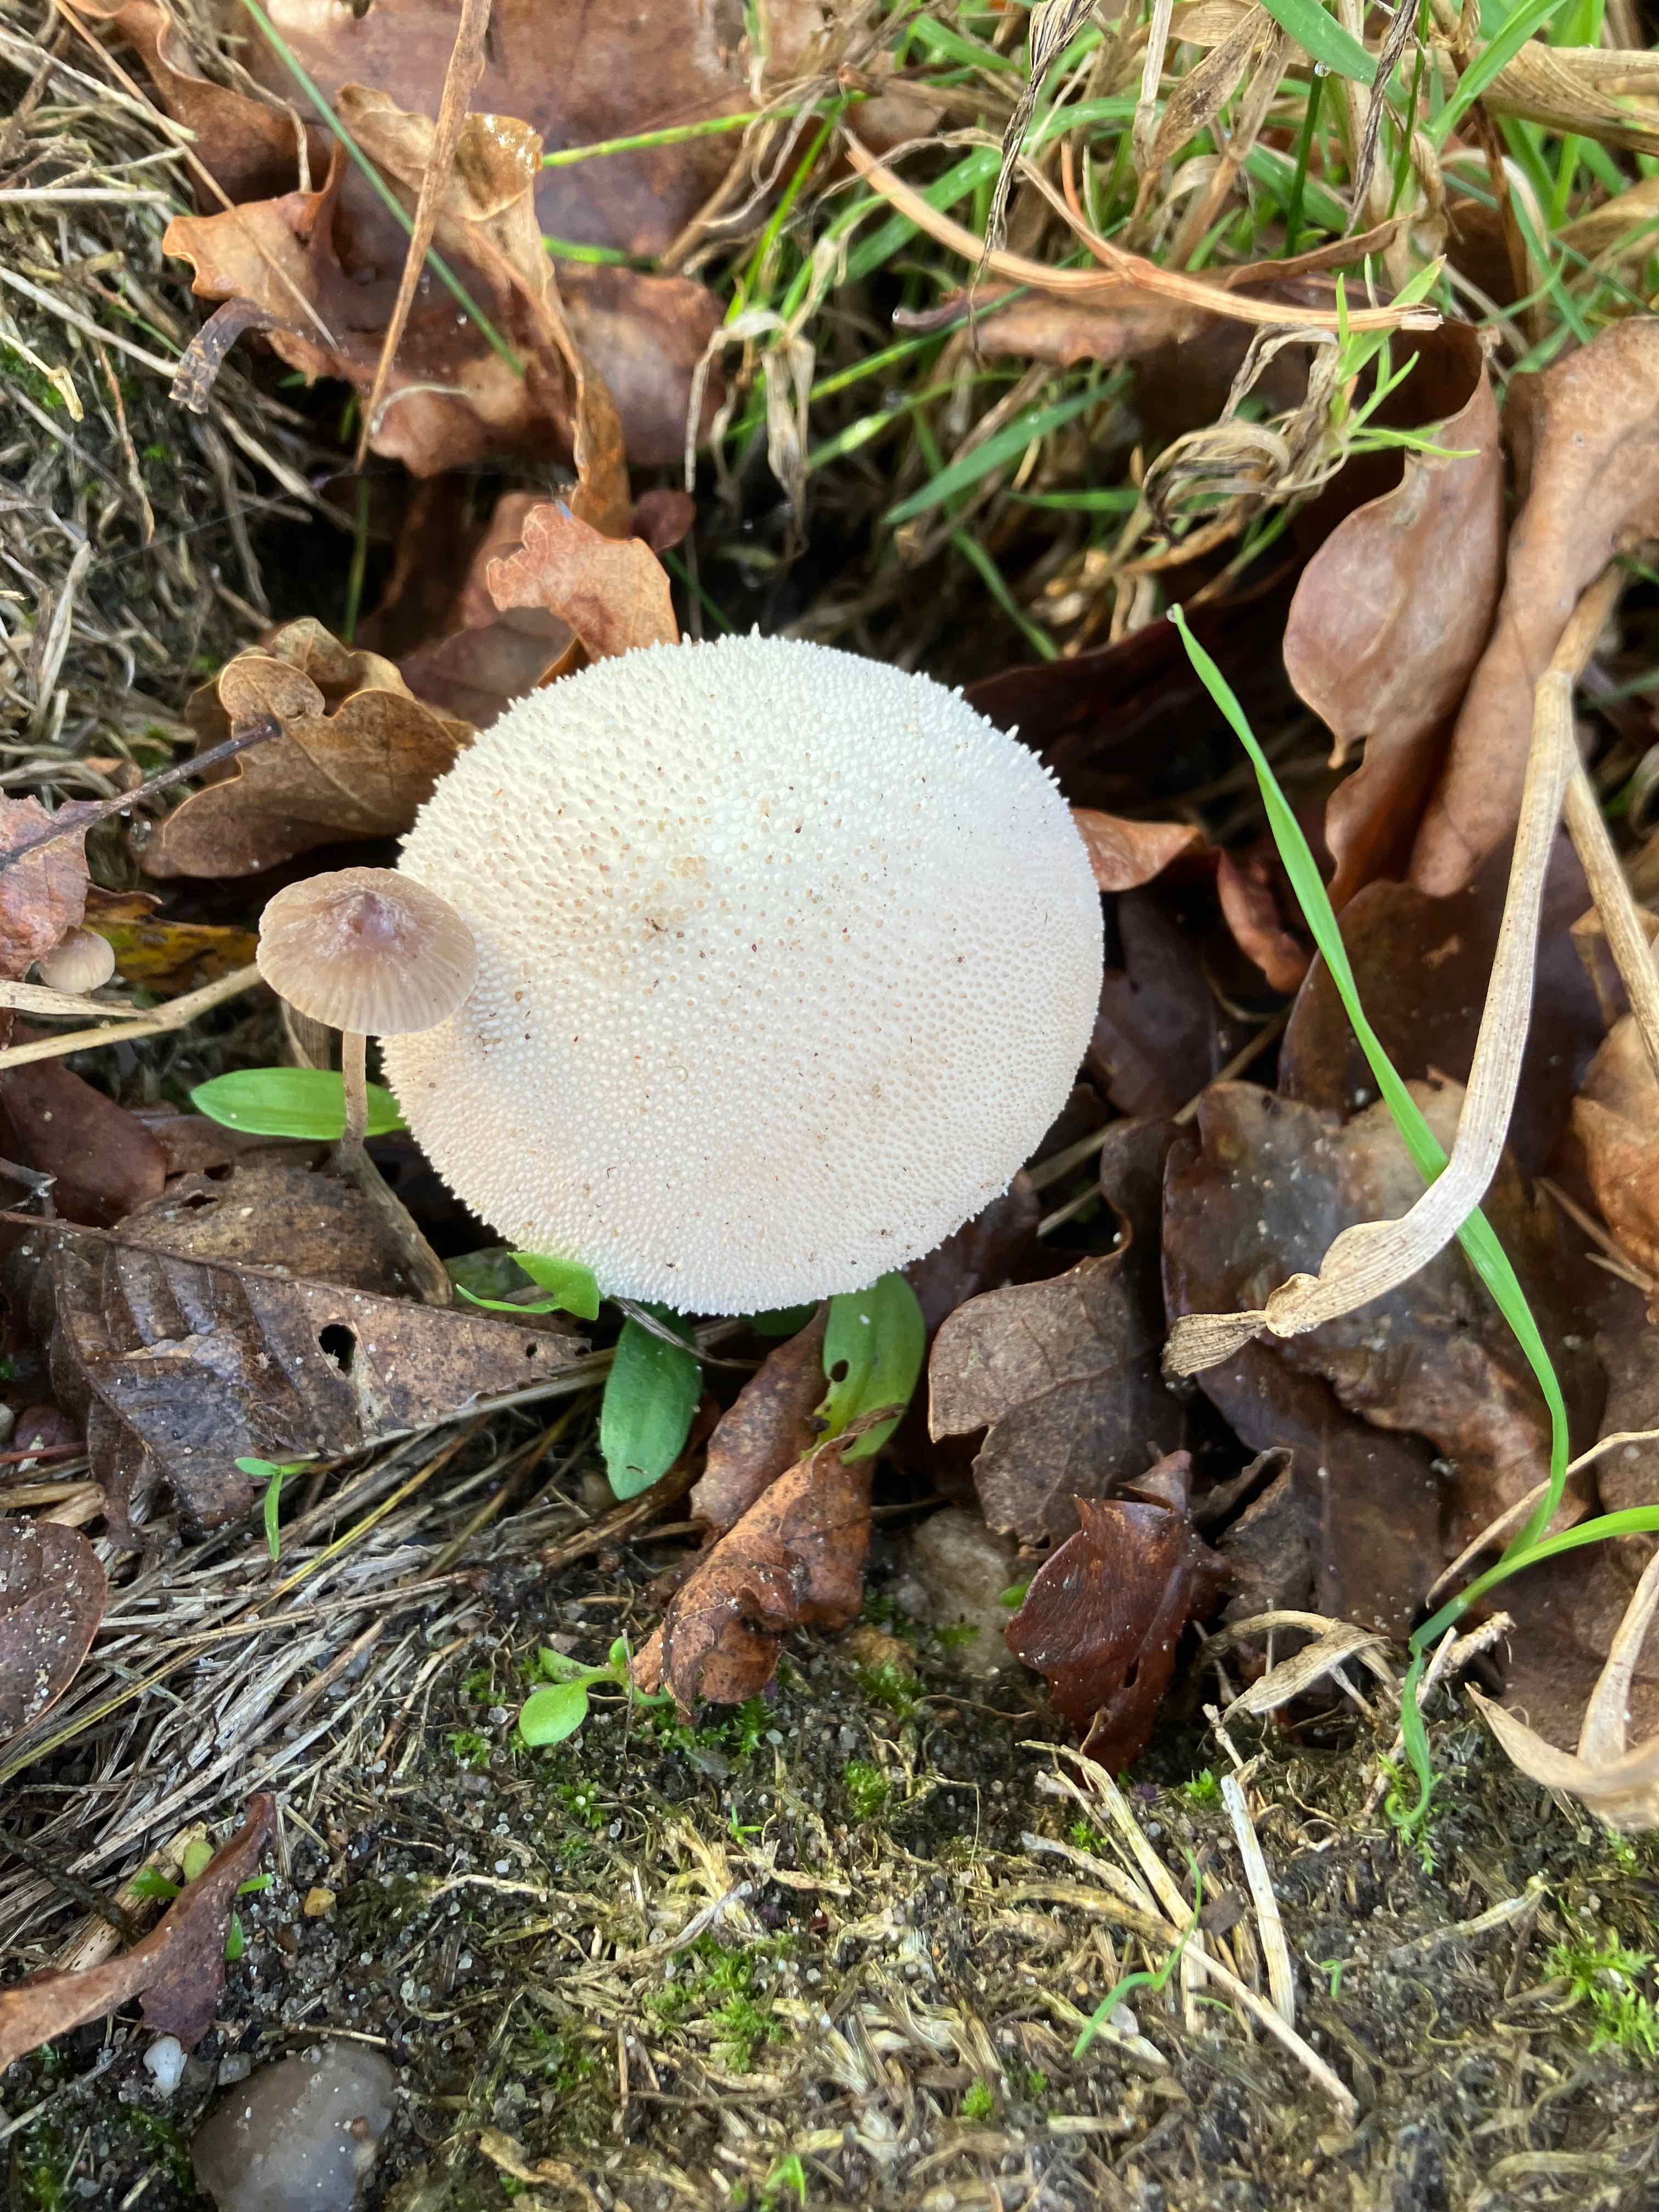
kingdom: Fungi
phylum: Basidiomycota
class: Agaricomycetes
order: Agaricales
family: Lycoperdaceae
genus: Lycoperdon
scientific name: Lycoperdon perlatum
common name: krystal-støvbold
